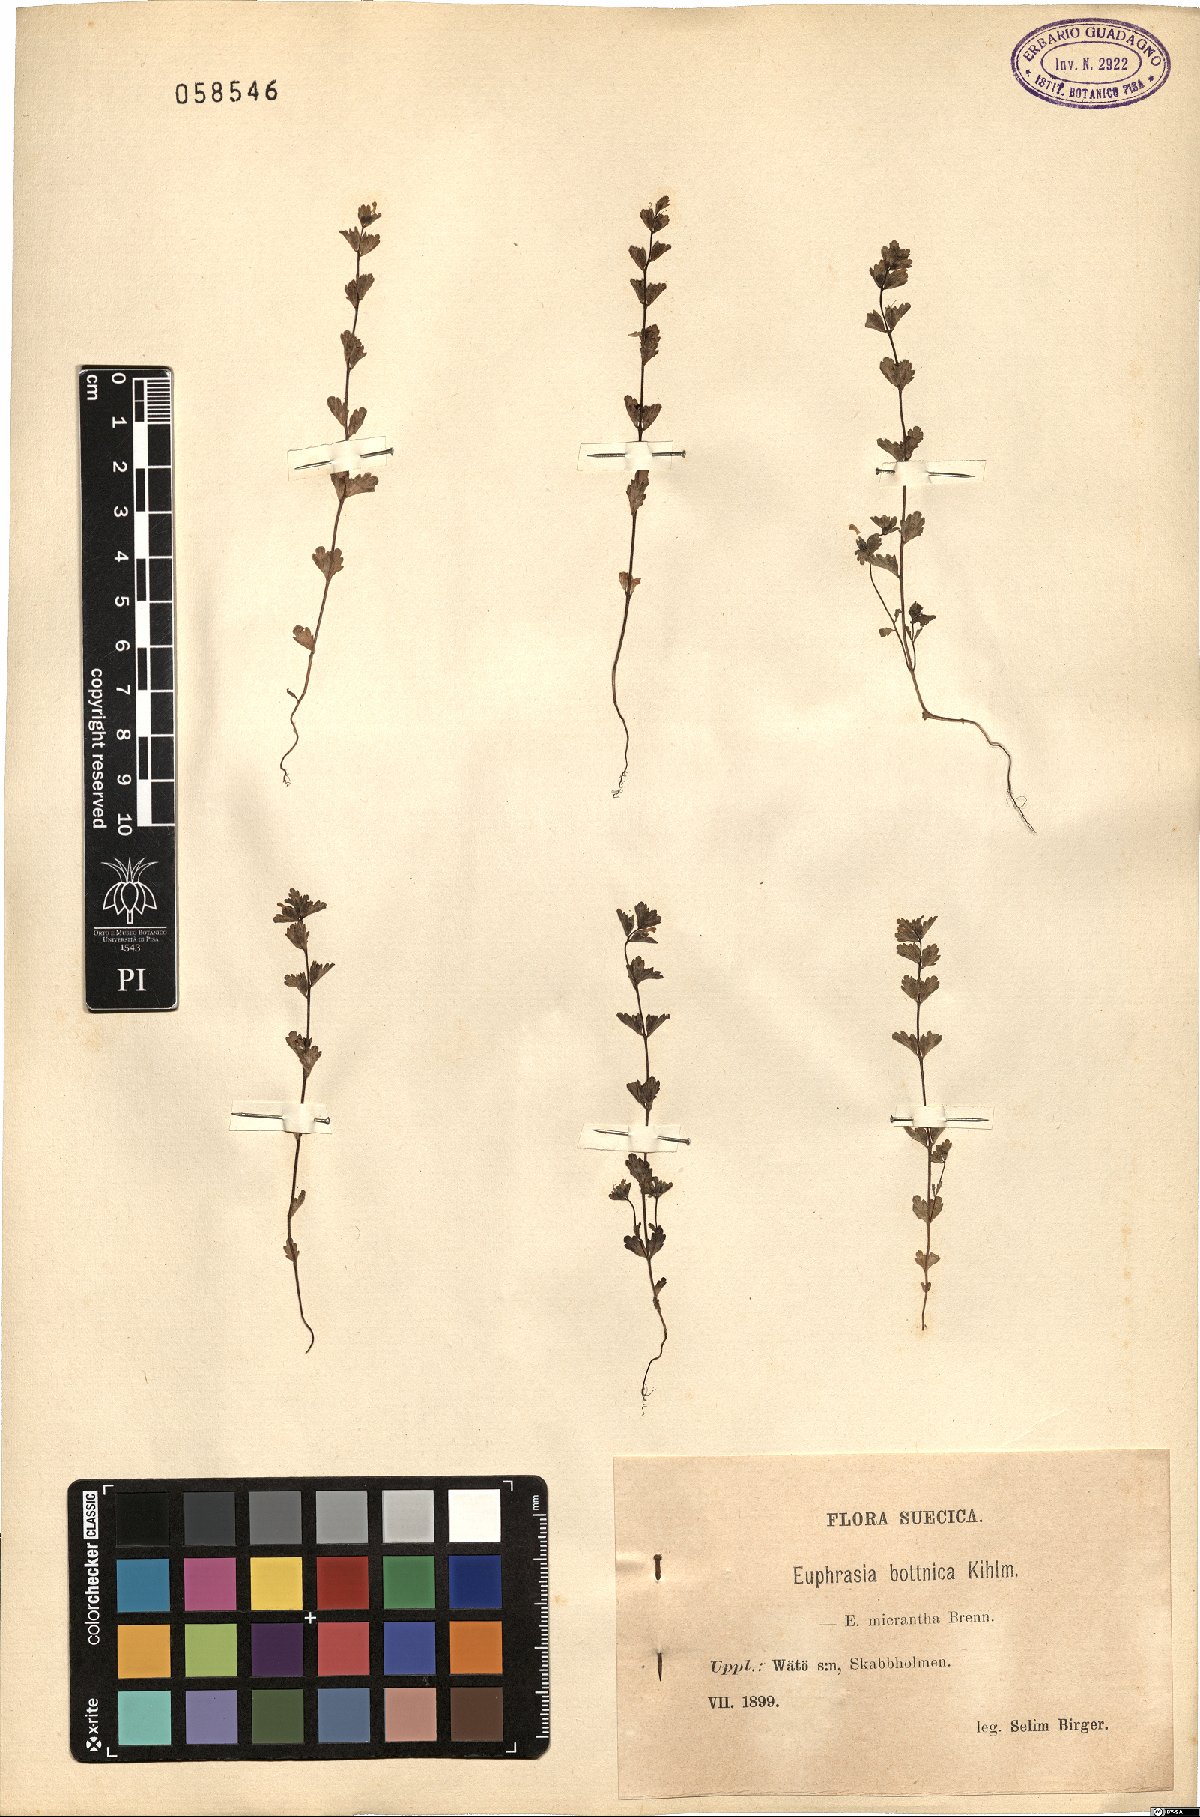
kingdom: Plantae
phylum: Tracheophyta
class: Magnoliopsida
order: Lamiales
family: Orobanchaceae
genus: Euphrasia
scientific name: Euphrasia bottnica
